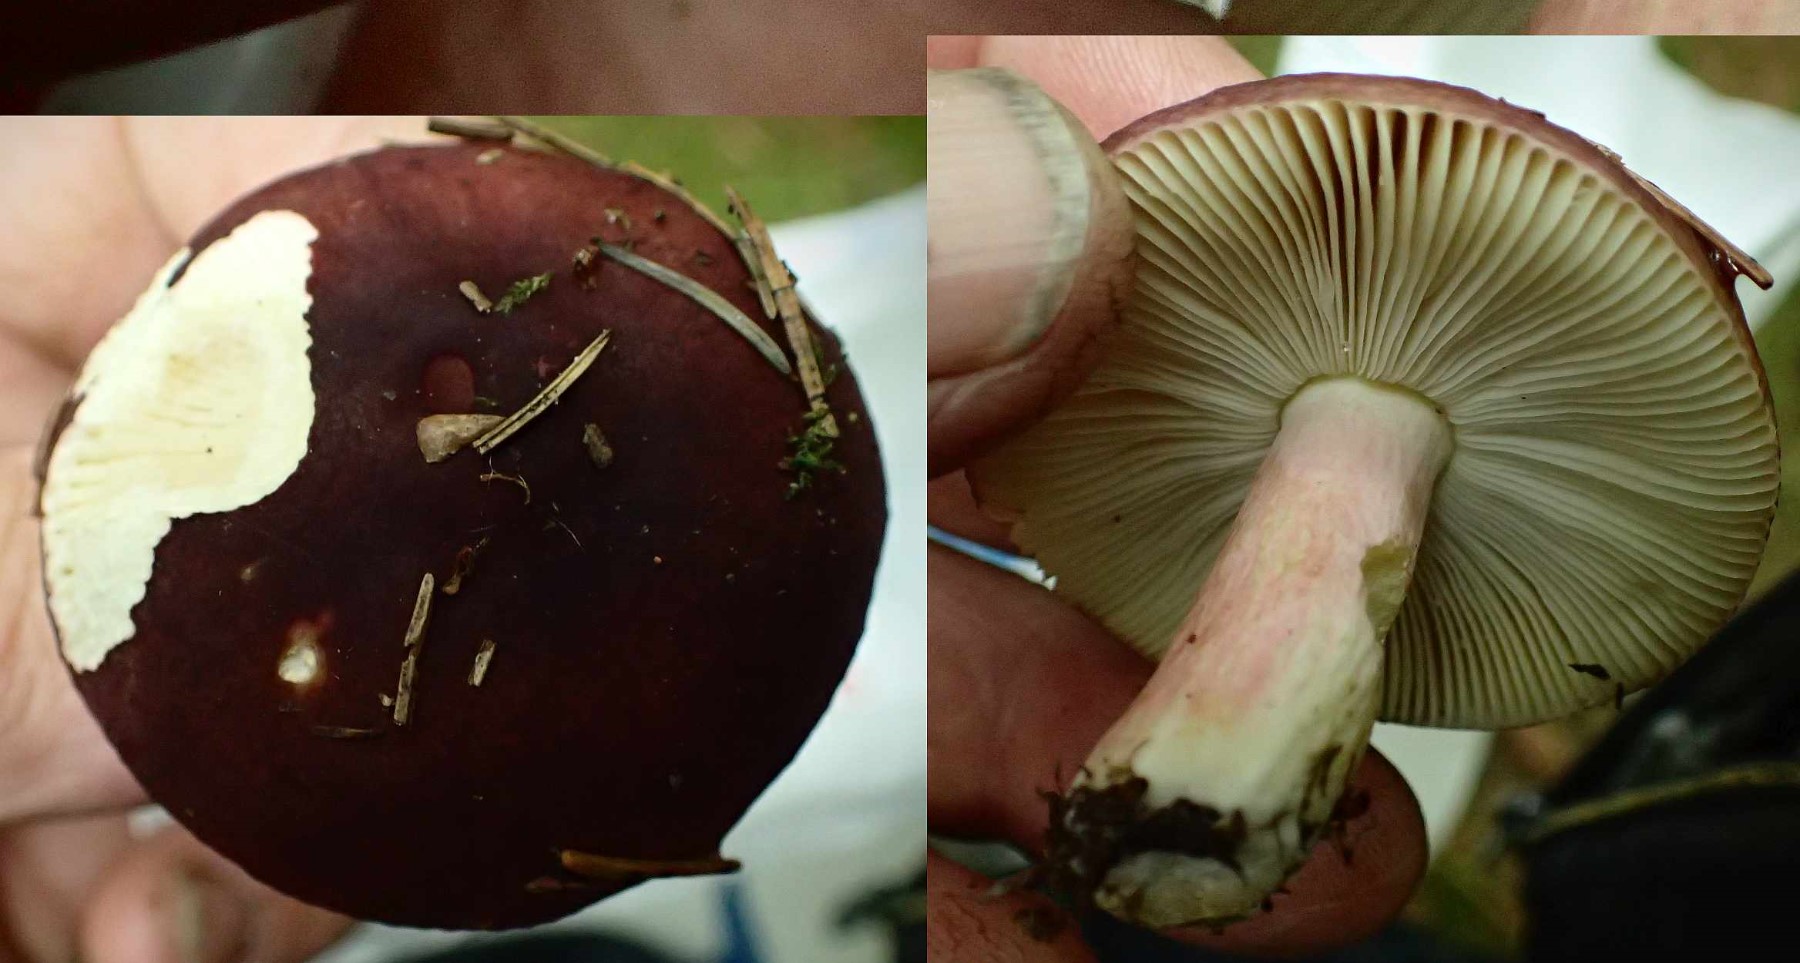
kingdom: Fungi
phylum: Basidiomycota
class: Agaricomycetes
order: Russulales
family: Russulaceae
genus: Russula
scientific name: Russula xerampelina
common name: hummer-skørhat
